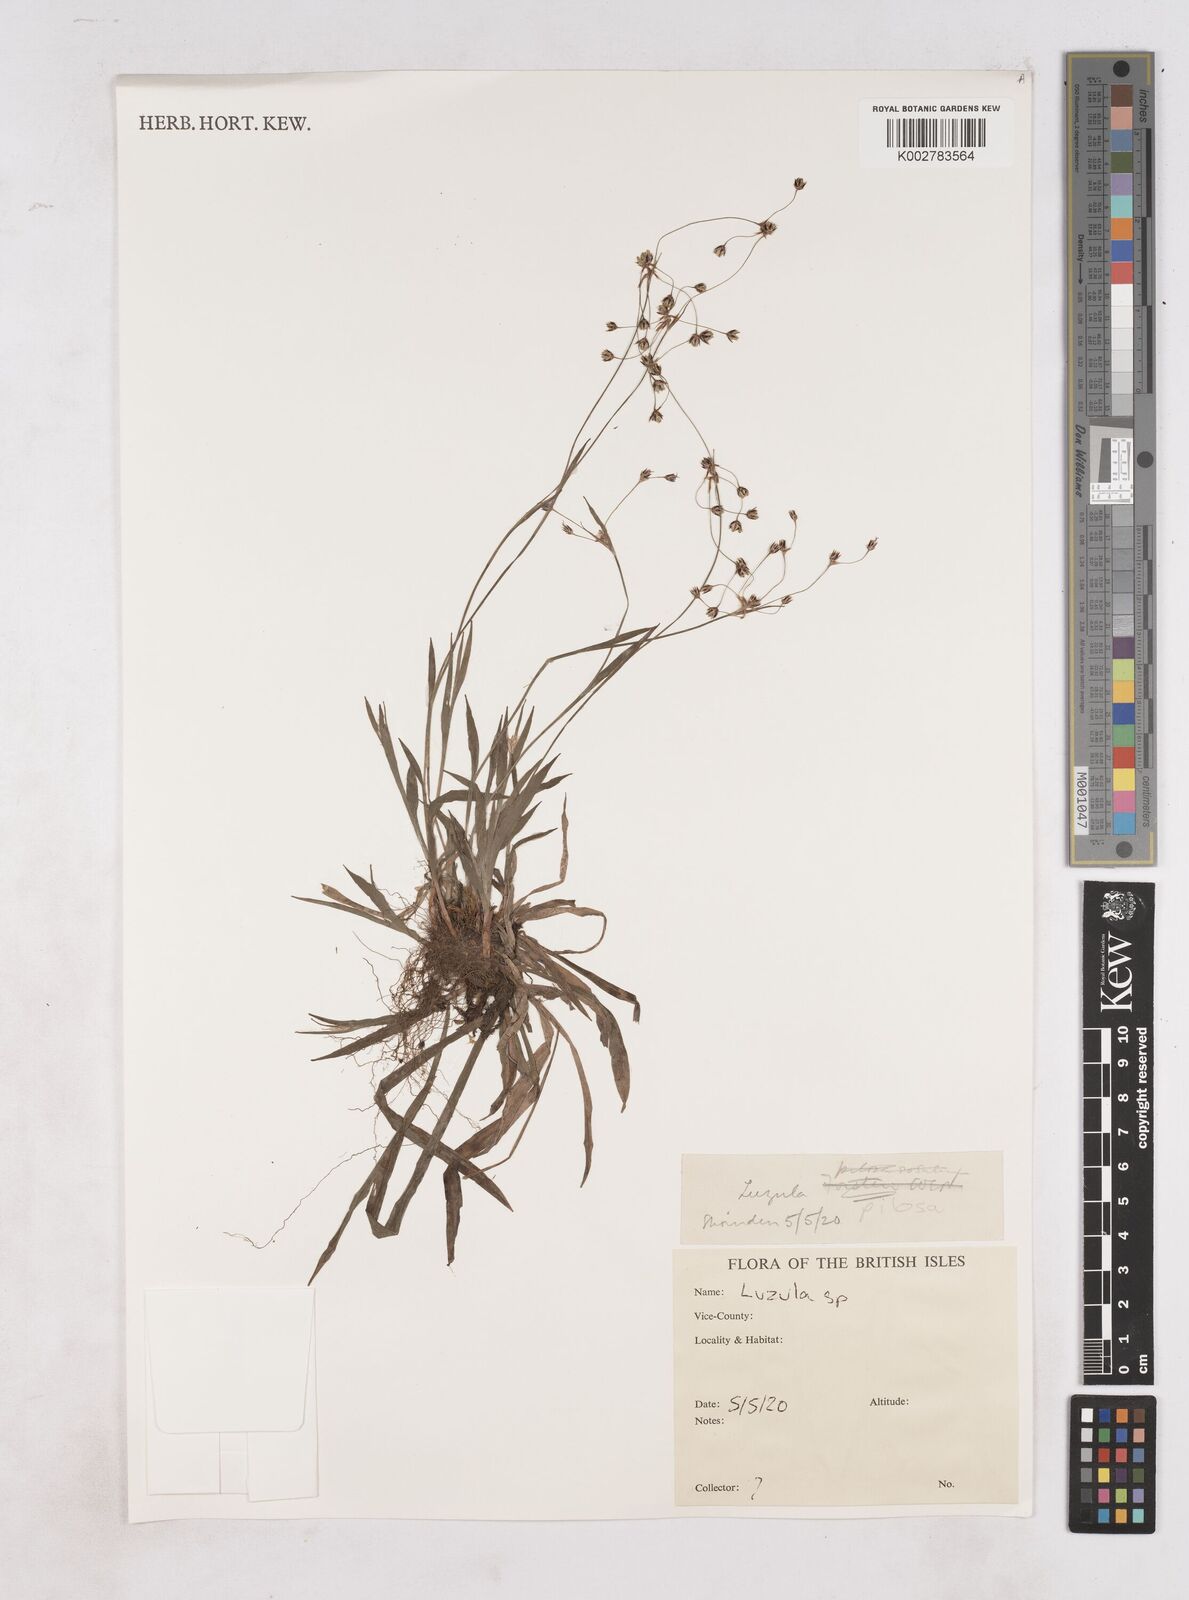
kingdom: Plantae
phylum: Tracheophyta
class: Liliopsida
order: Poales
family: Juncaceae
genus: Luzula
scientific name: Luzula
